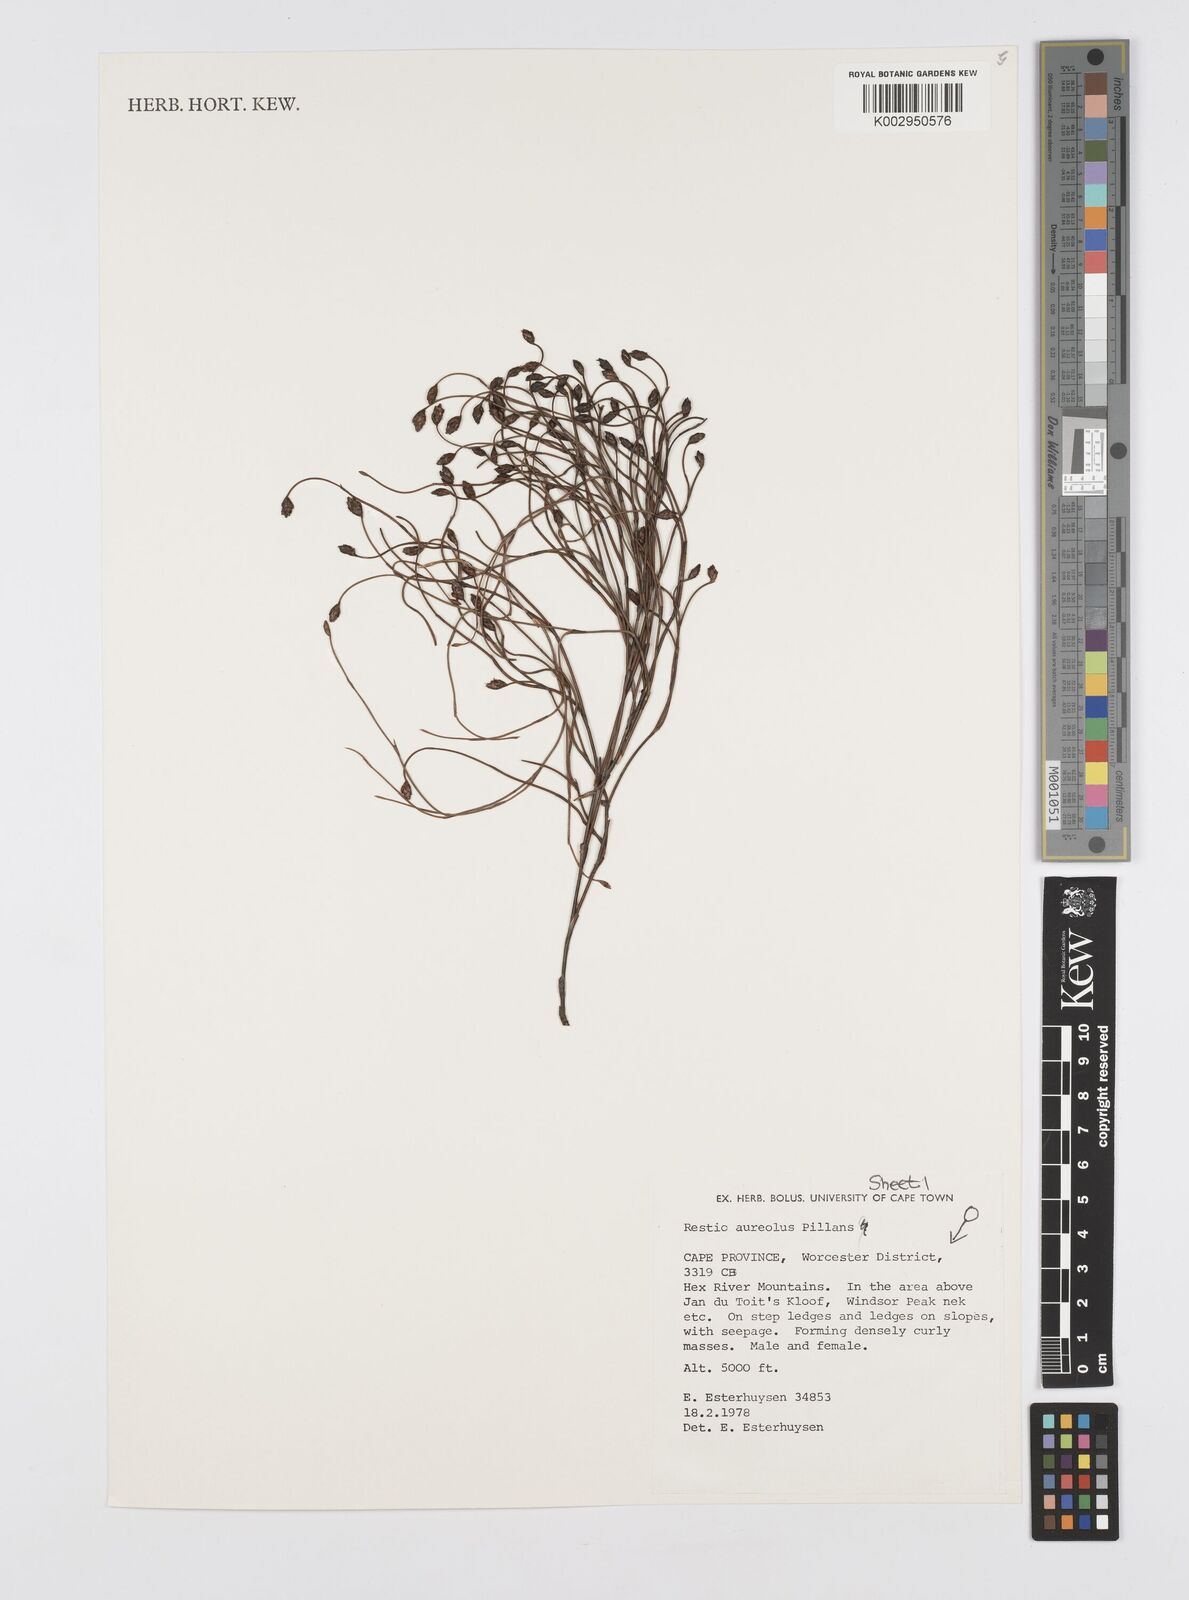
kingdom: Plantae
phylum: Tracheophyta
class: Liliopsida
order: Poales
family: Restionaceae
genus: Restio
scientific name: Restio aureolus
